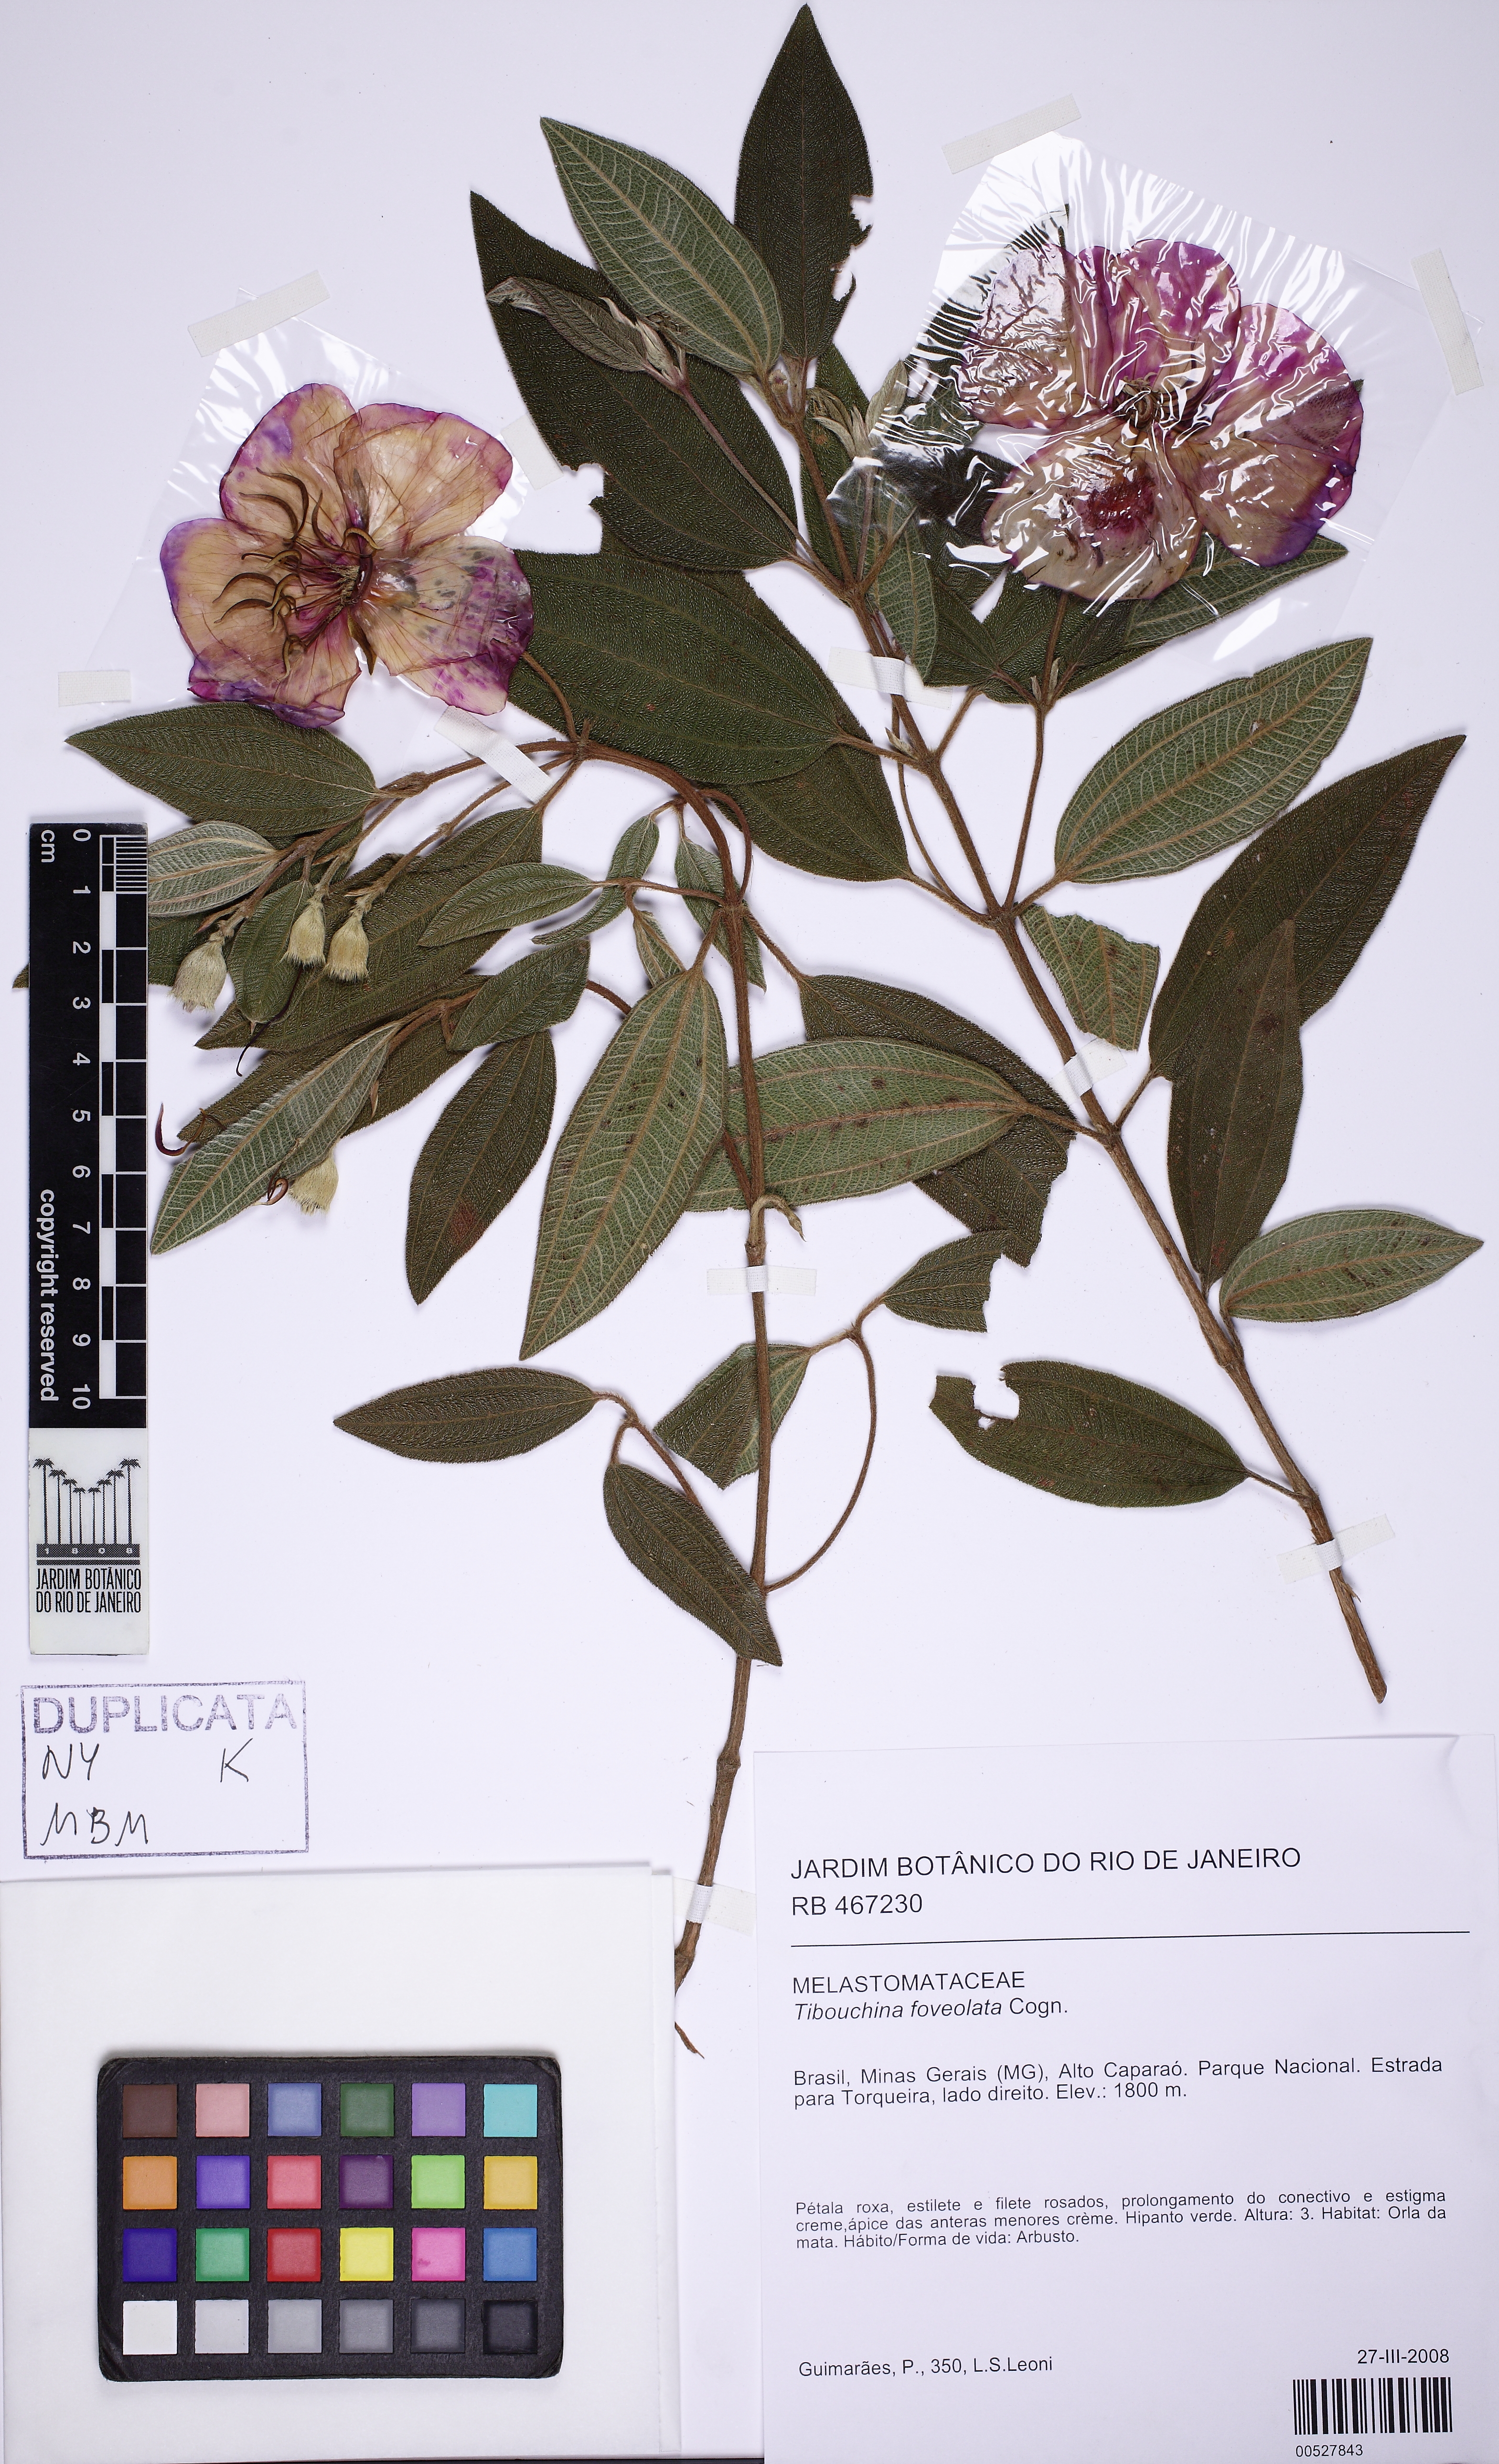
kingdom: Plantae
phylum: Tracheophyta
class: Magnoliopsida
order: Myrtales
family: Melastomataceae
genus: Pleroma
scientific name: Pleroma foveolatum
